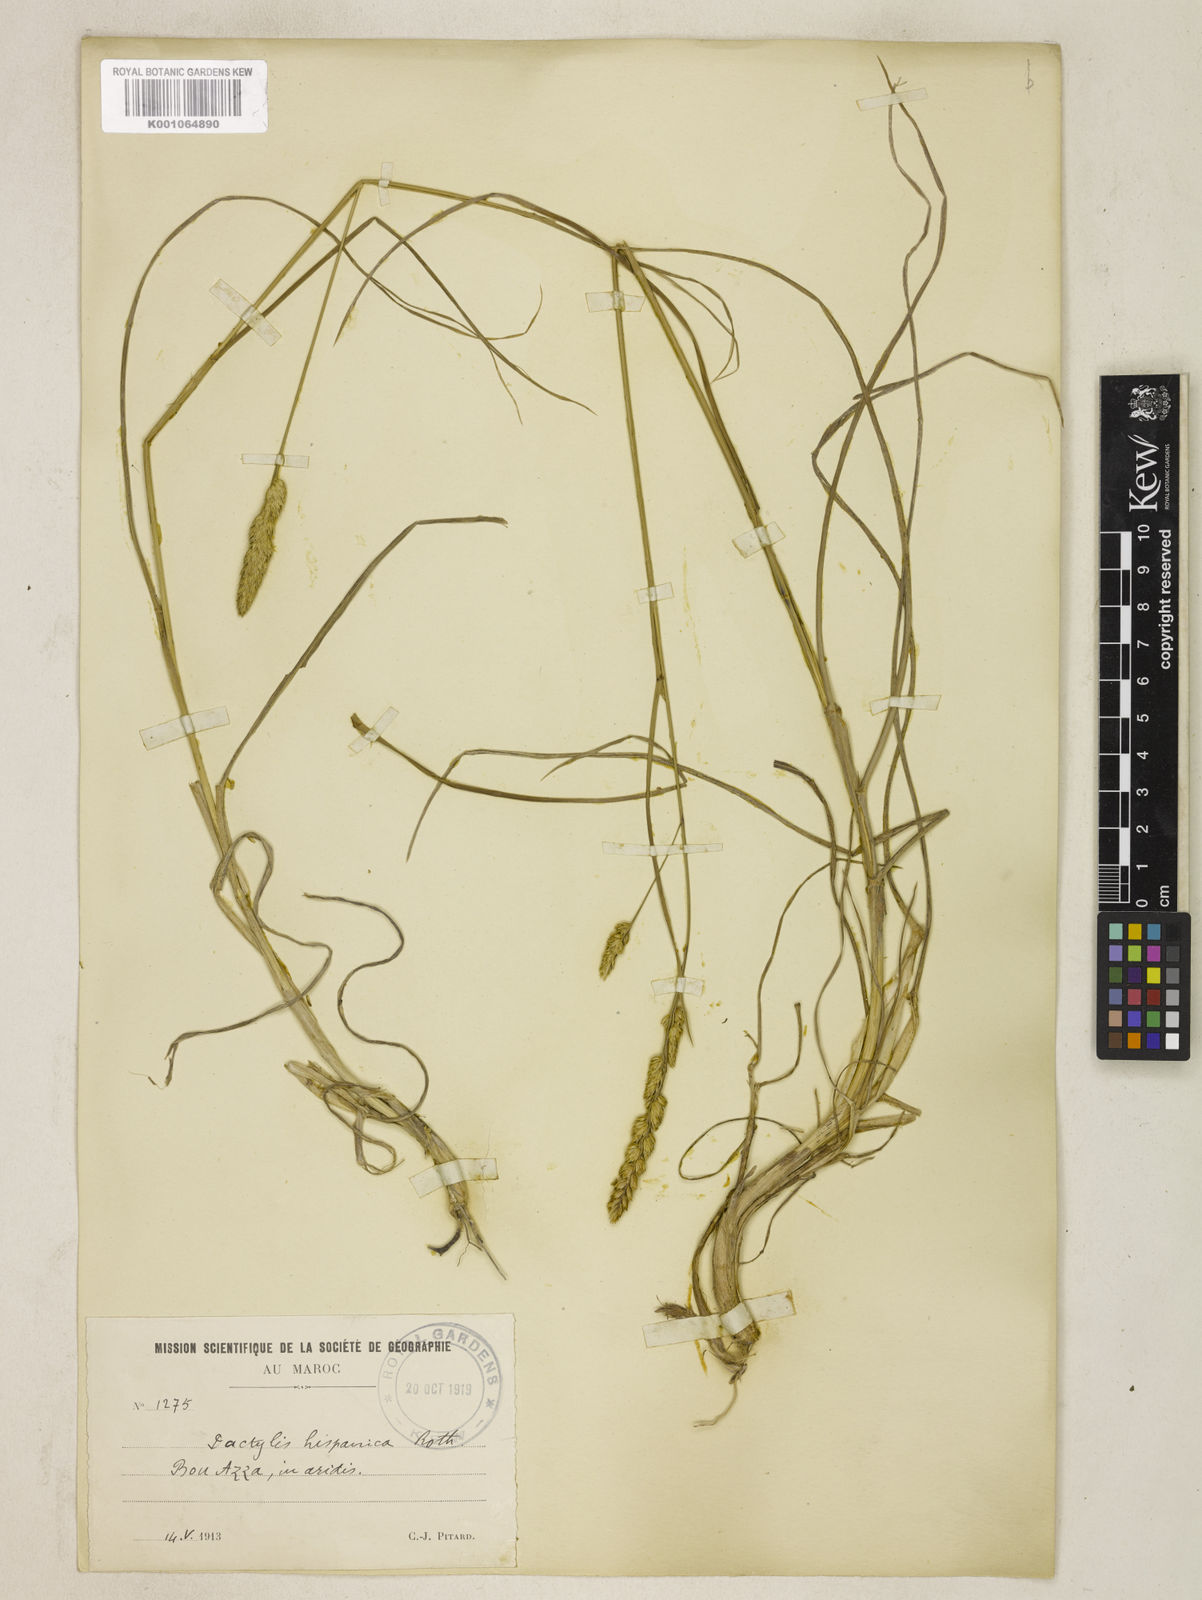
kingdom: Plantae
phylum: Tracheophyta
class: Liliopsida
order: Poales
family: Poaceae
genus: Dactylis
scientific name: Dactylis glomerata
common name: Orchardgrass
